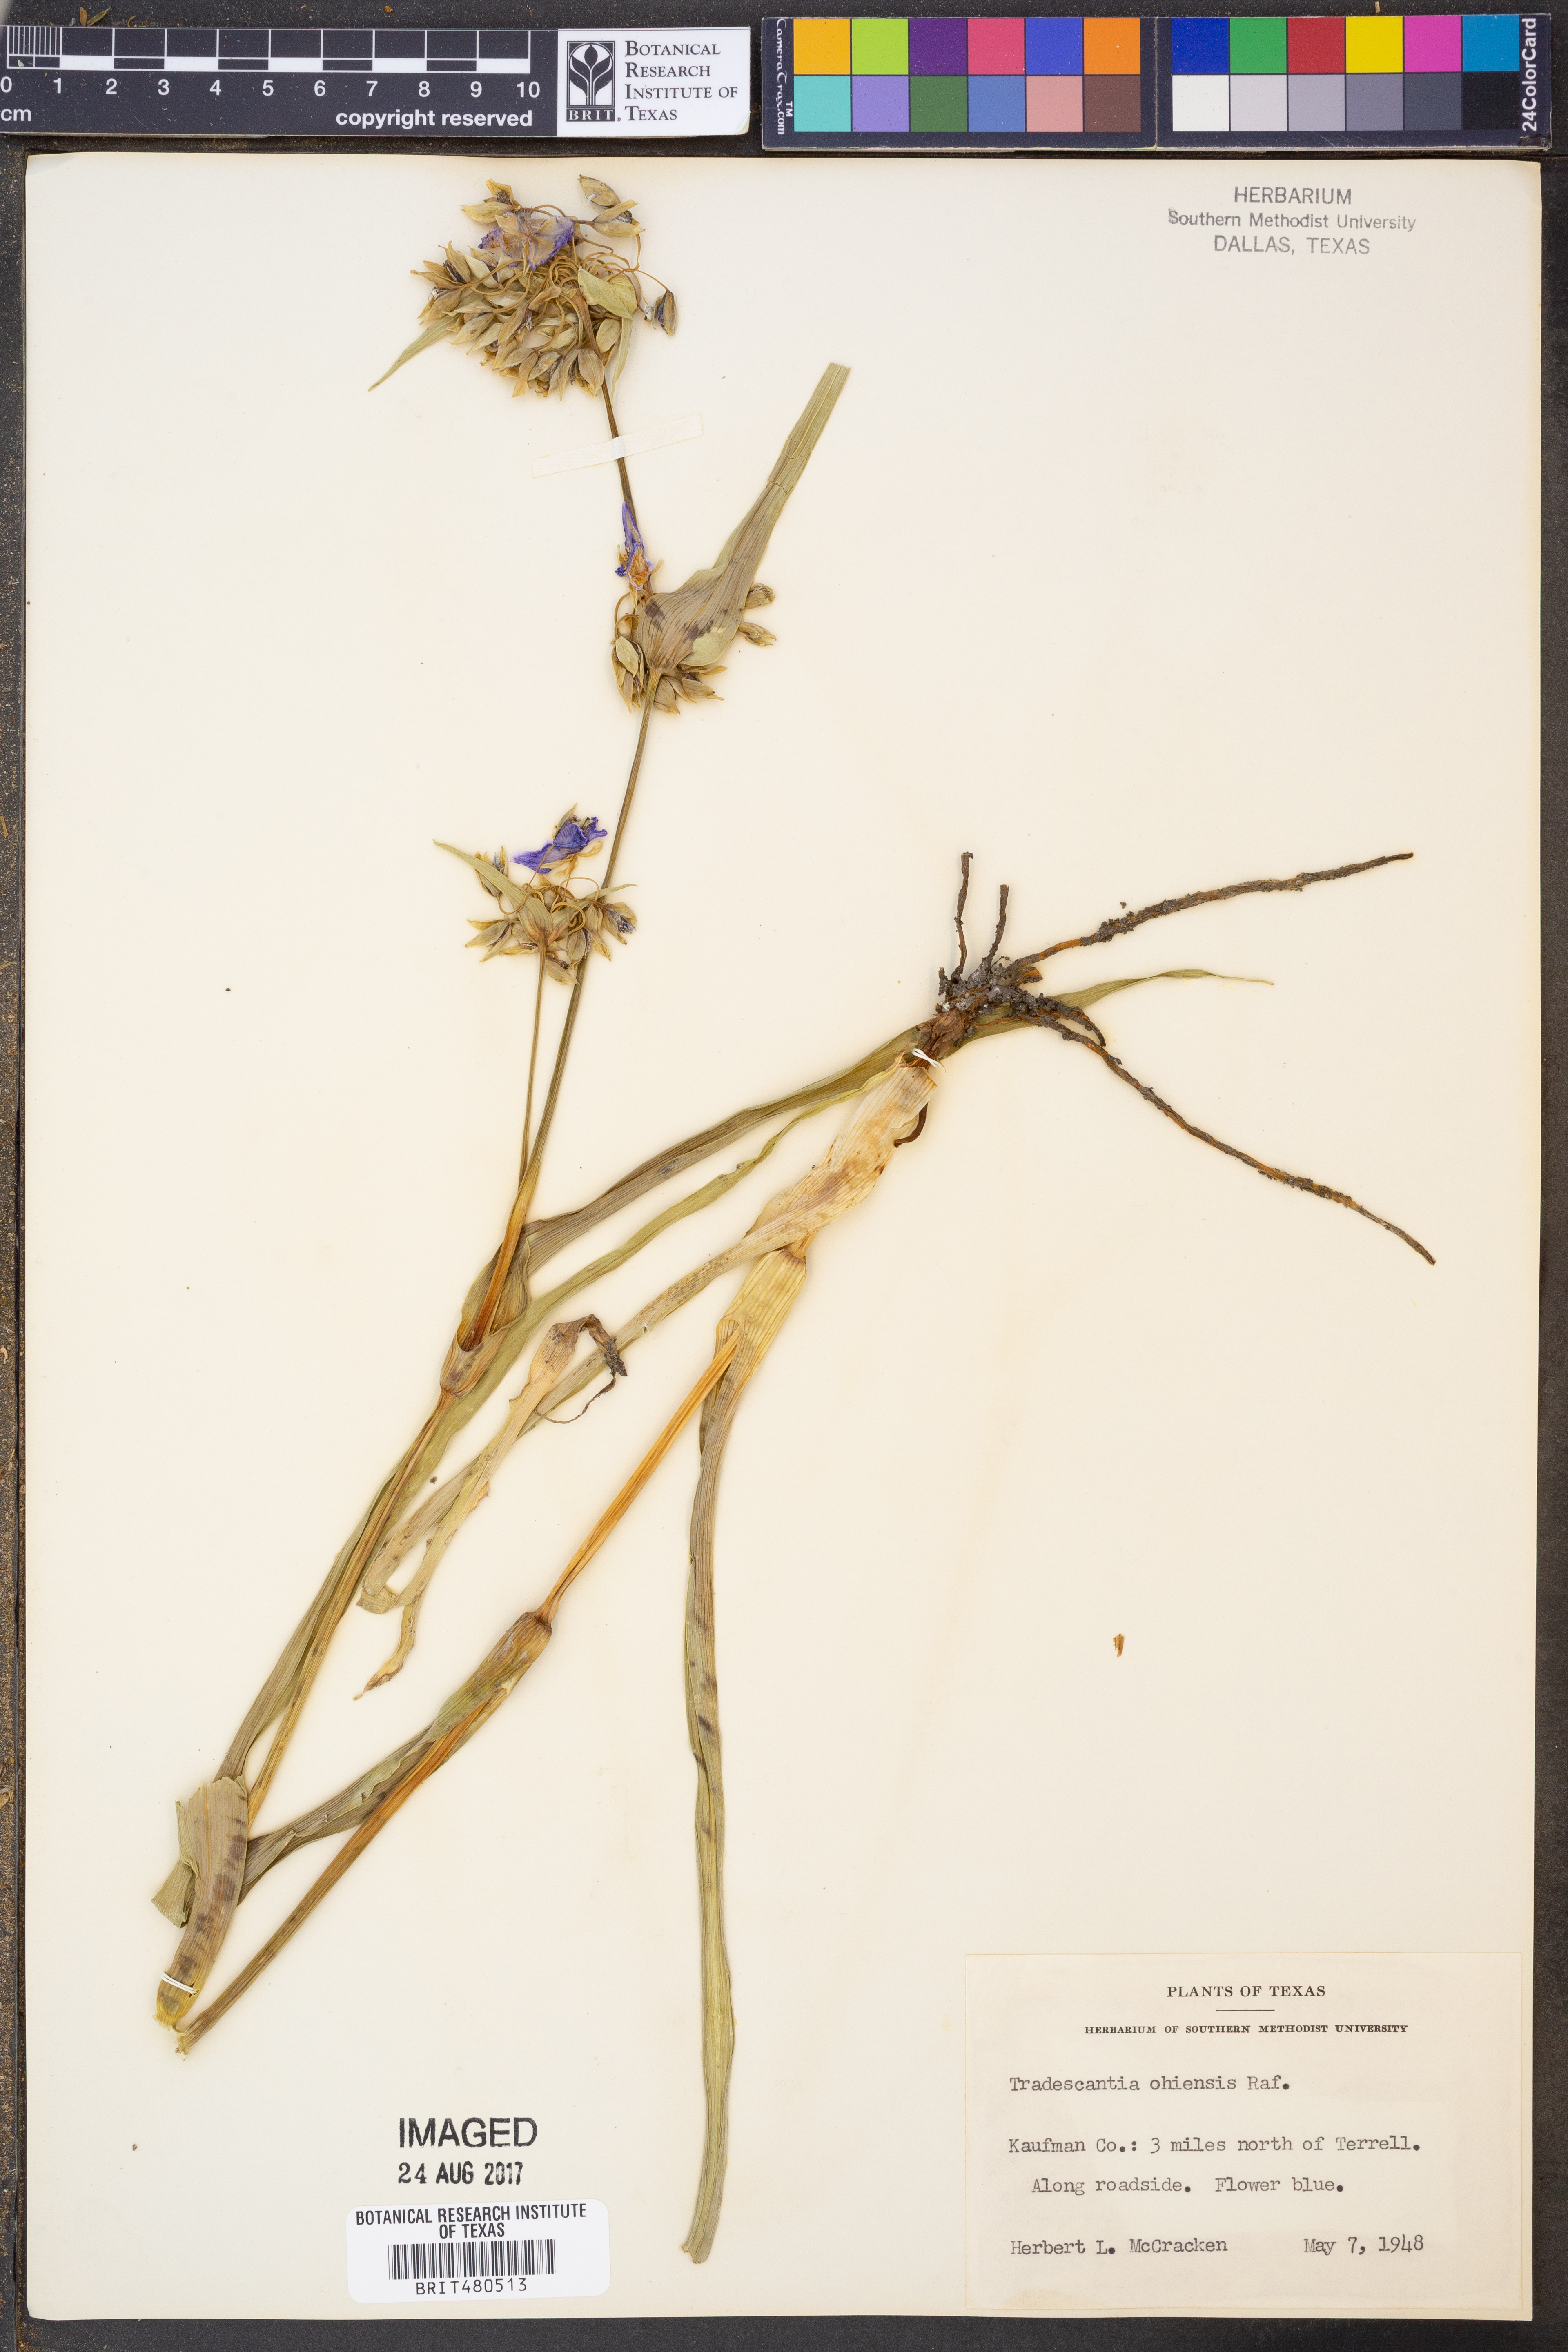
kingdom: Plantae
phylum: Tracheophyta
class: Liliopsida
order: Commelinales
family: Commelinaceae
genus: Tradescantia
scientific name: Tradescantia ohiensis
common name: Ohio spiderwort
